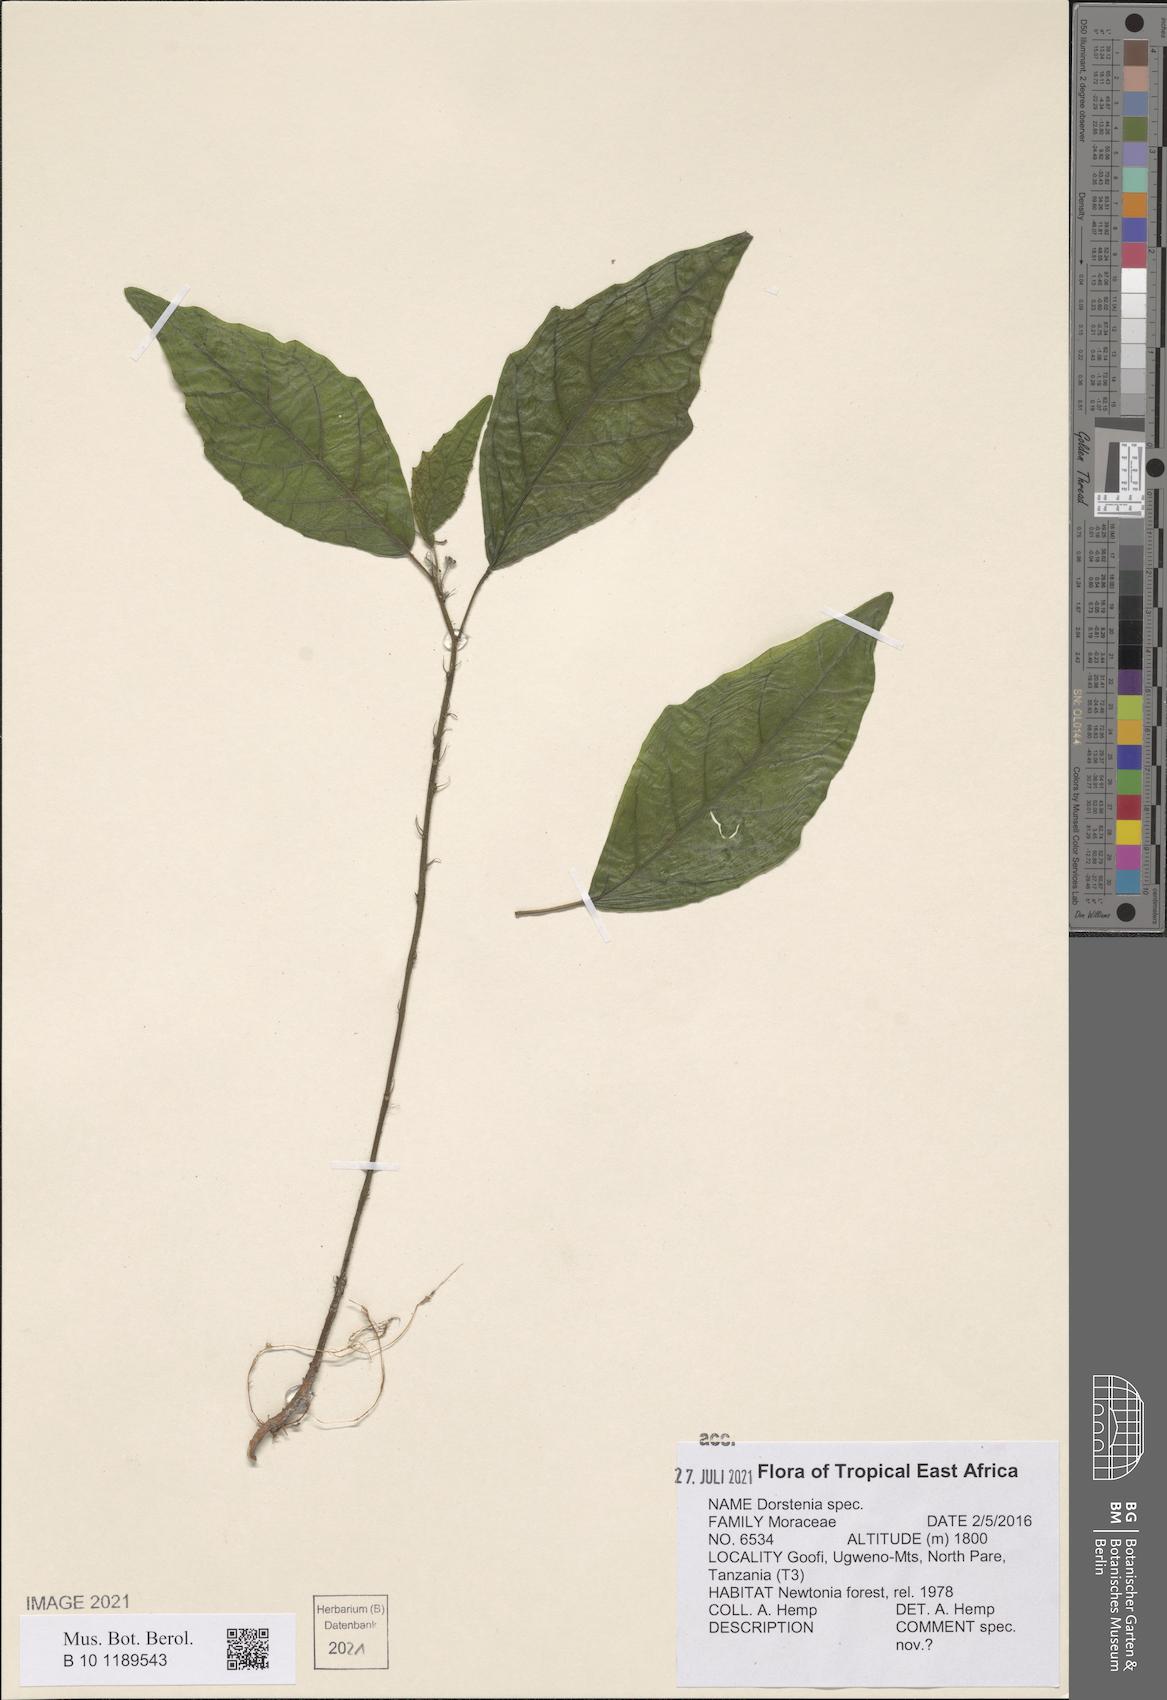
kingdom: Plantae
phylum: Tracheophyta
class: Magnoliopsida
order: Rosales
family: Moraceae
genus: Dorstenia
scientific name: Dorstenia
